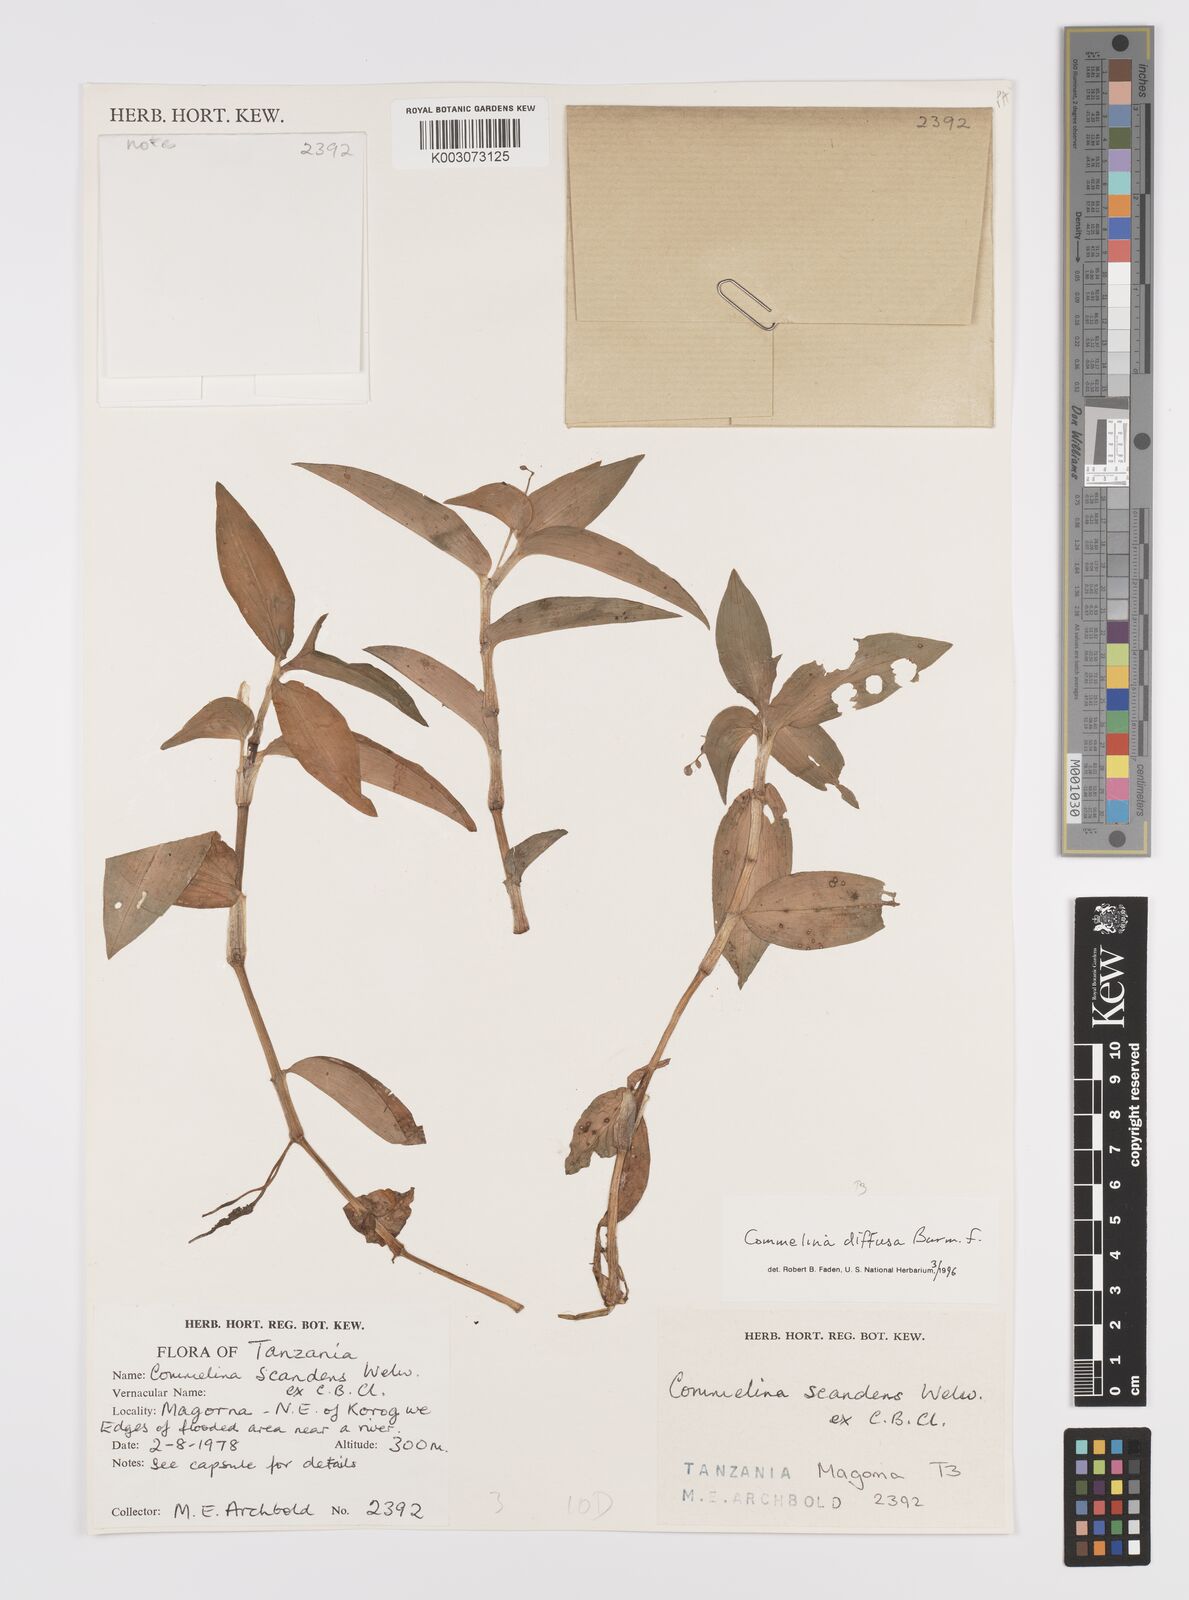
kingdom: Plantae
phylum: Tracheophyta
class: Liliopsida
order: Commelinales
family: Commelinaceae
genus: Commelina
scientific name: Commelina diffusa
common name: Climbing dayflower
